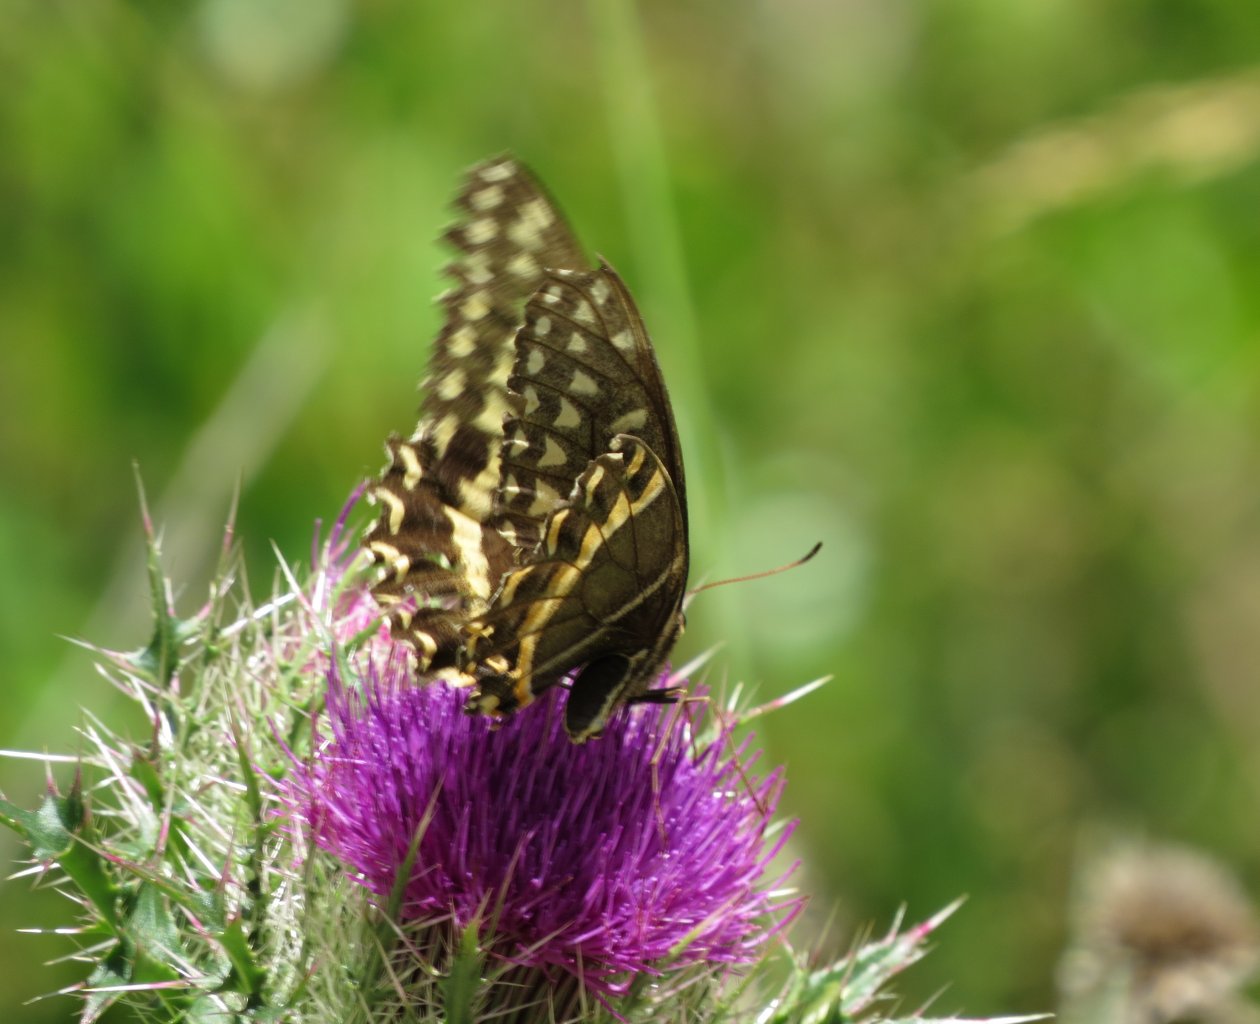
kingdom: Animalia
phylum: Arthropoda
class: Insecta
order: Lepidoptera
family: Papilionidae
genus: Pterourus
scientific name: Pterourus palamedes
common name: Palamedes Swallowtail
